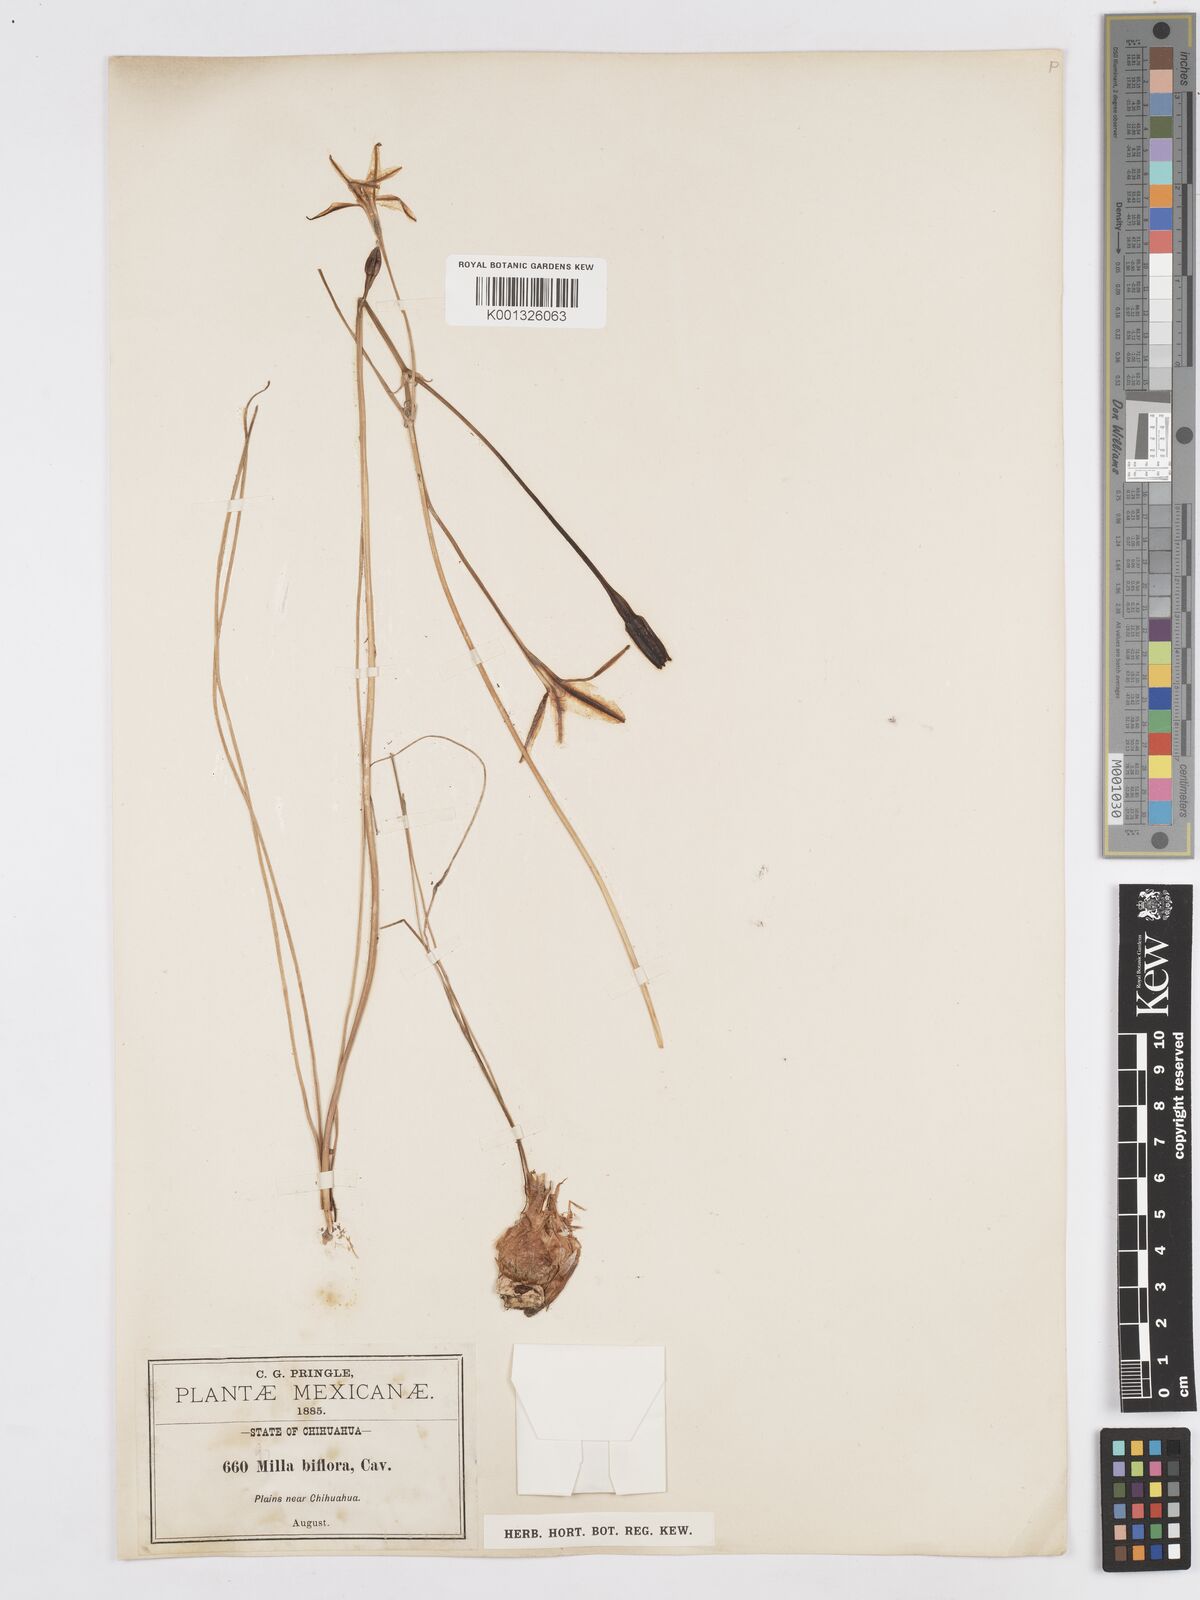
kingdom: Plantae
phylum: Tracheophyta
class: Liliopsida
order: Asparagales
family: Asparagaceae
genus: Milla
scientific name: Milla biflora
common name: Mexican-star
